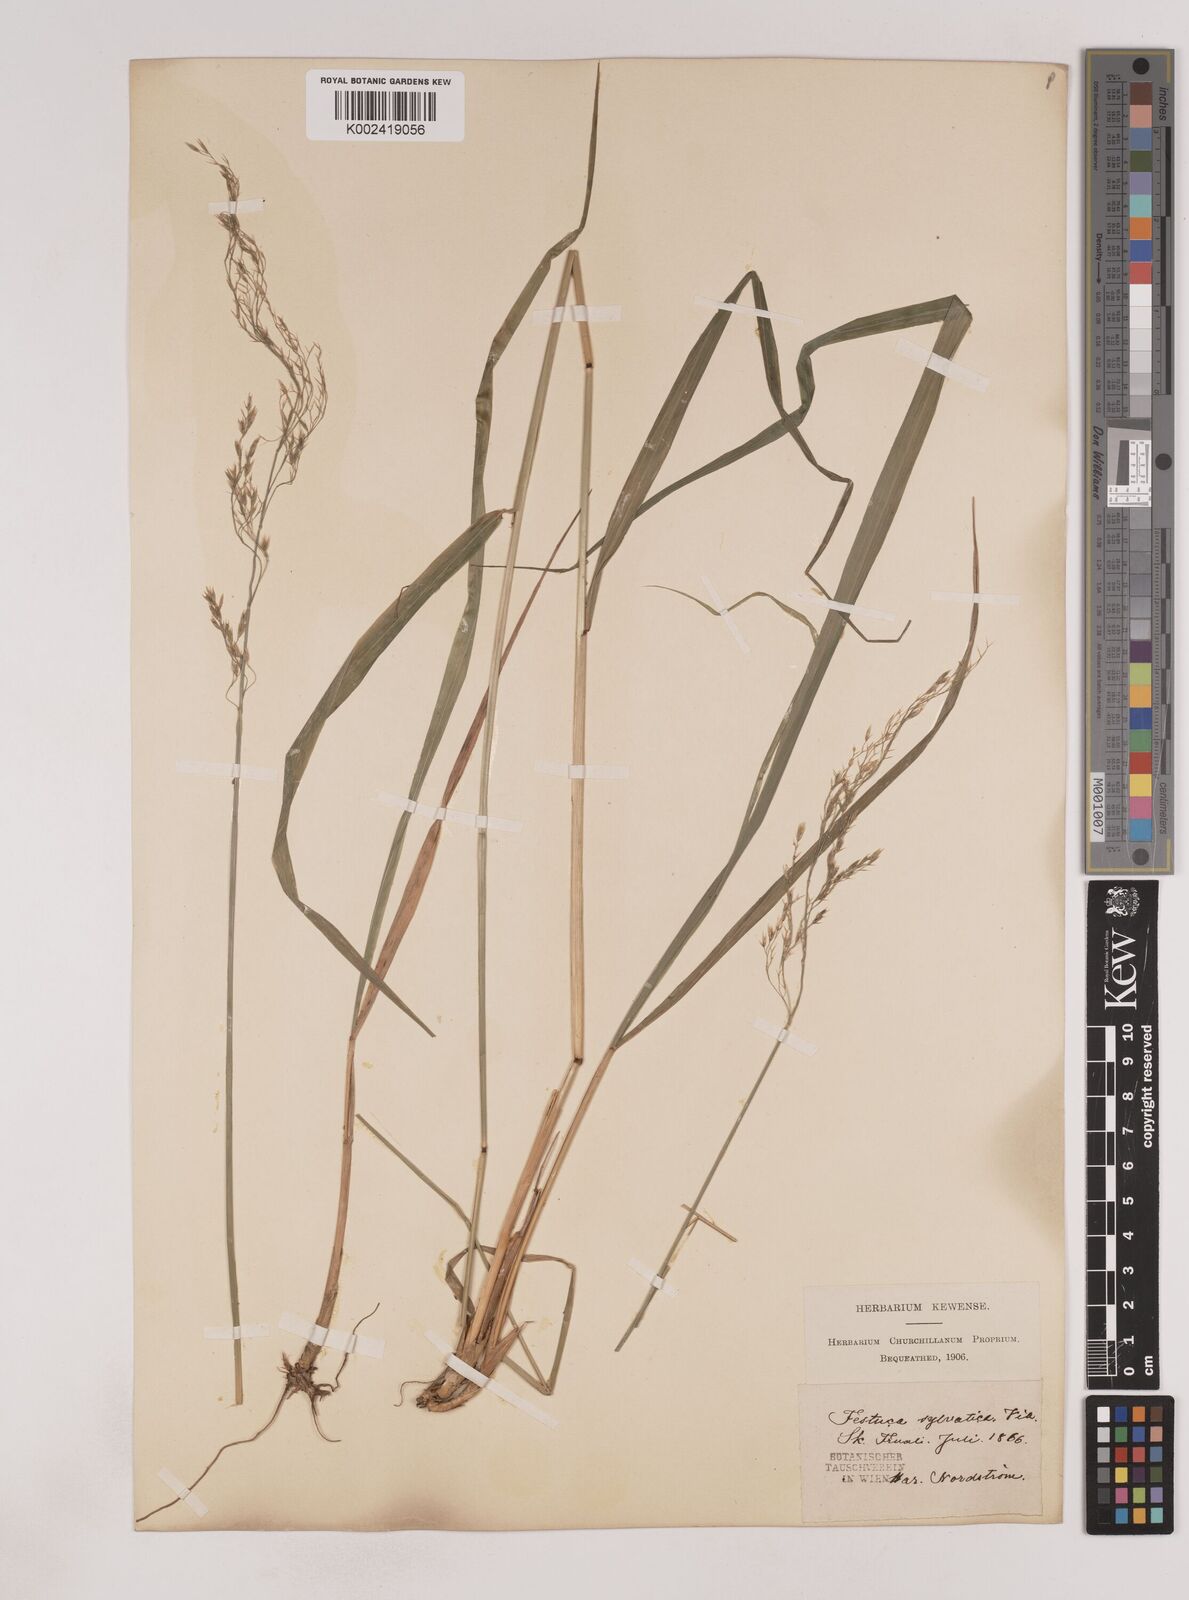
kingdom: Plantae
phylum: Tracheophyta
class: Liliopsida
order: Poales
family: Poaceae
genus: Festuca
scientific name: Festuca drymeja
